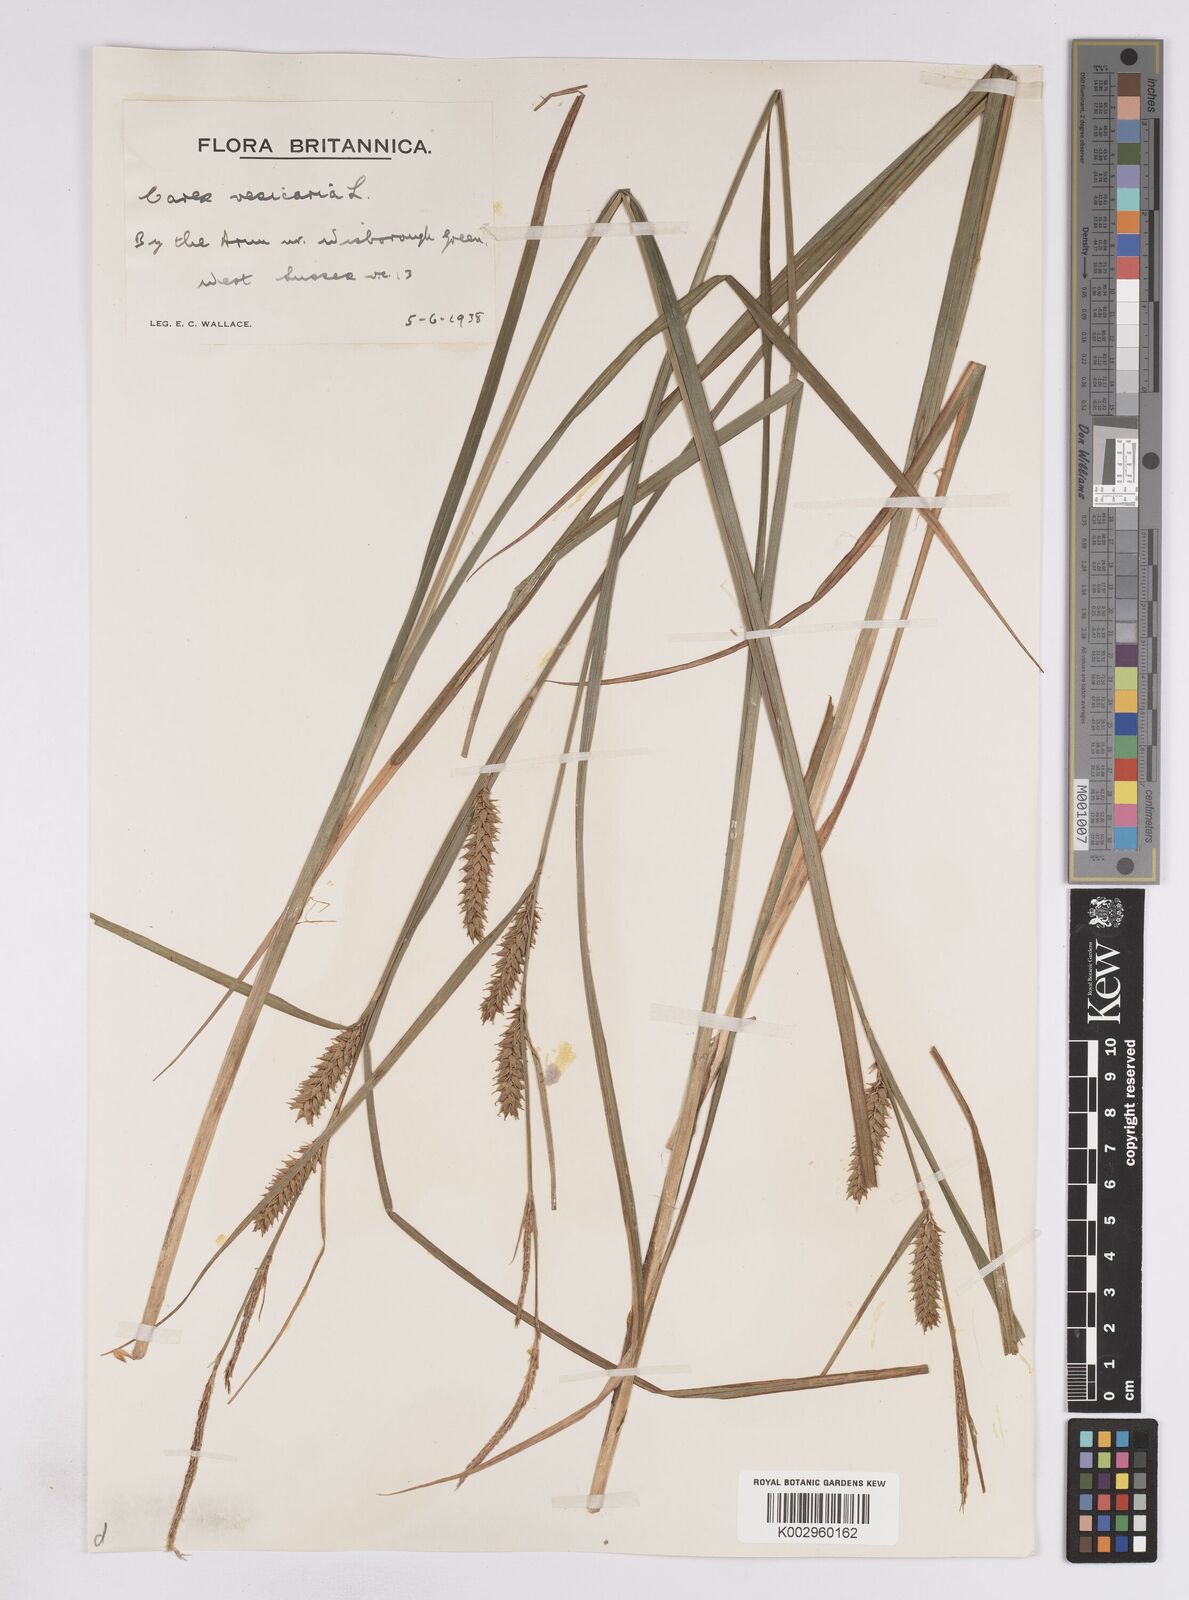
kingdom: Plantae
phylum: Tracheophyta
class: Liliopsida
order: Poales
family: Cyperaceae
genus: Carex
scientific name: Carex vesicaria
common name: Bladder-sedge
